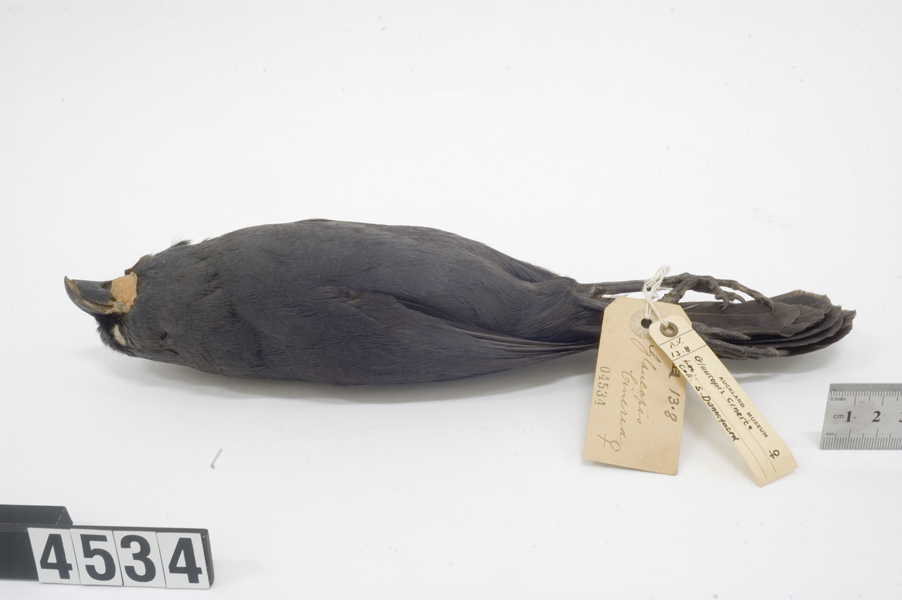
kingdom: Animalia
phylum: Chordata
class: Aves
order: Passeriformes
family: Callaeatidae
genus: Callaeas
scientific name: Callaeas cinereus
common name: South island kokako
